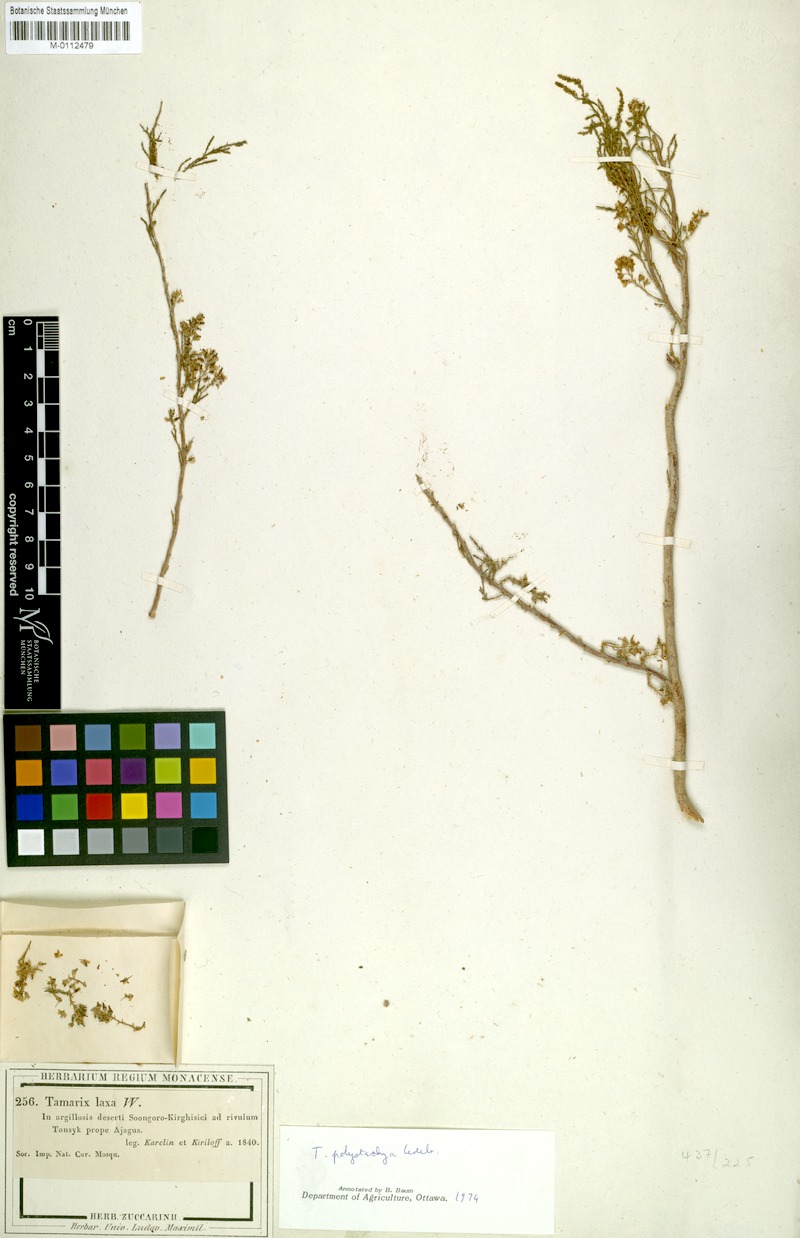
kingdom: Plantae
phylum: Tracheophyta
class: Magnoliopsida
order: Caryophyllales
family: Tamaricaceae
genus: Tamarix
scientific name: Tamarix laxa
